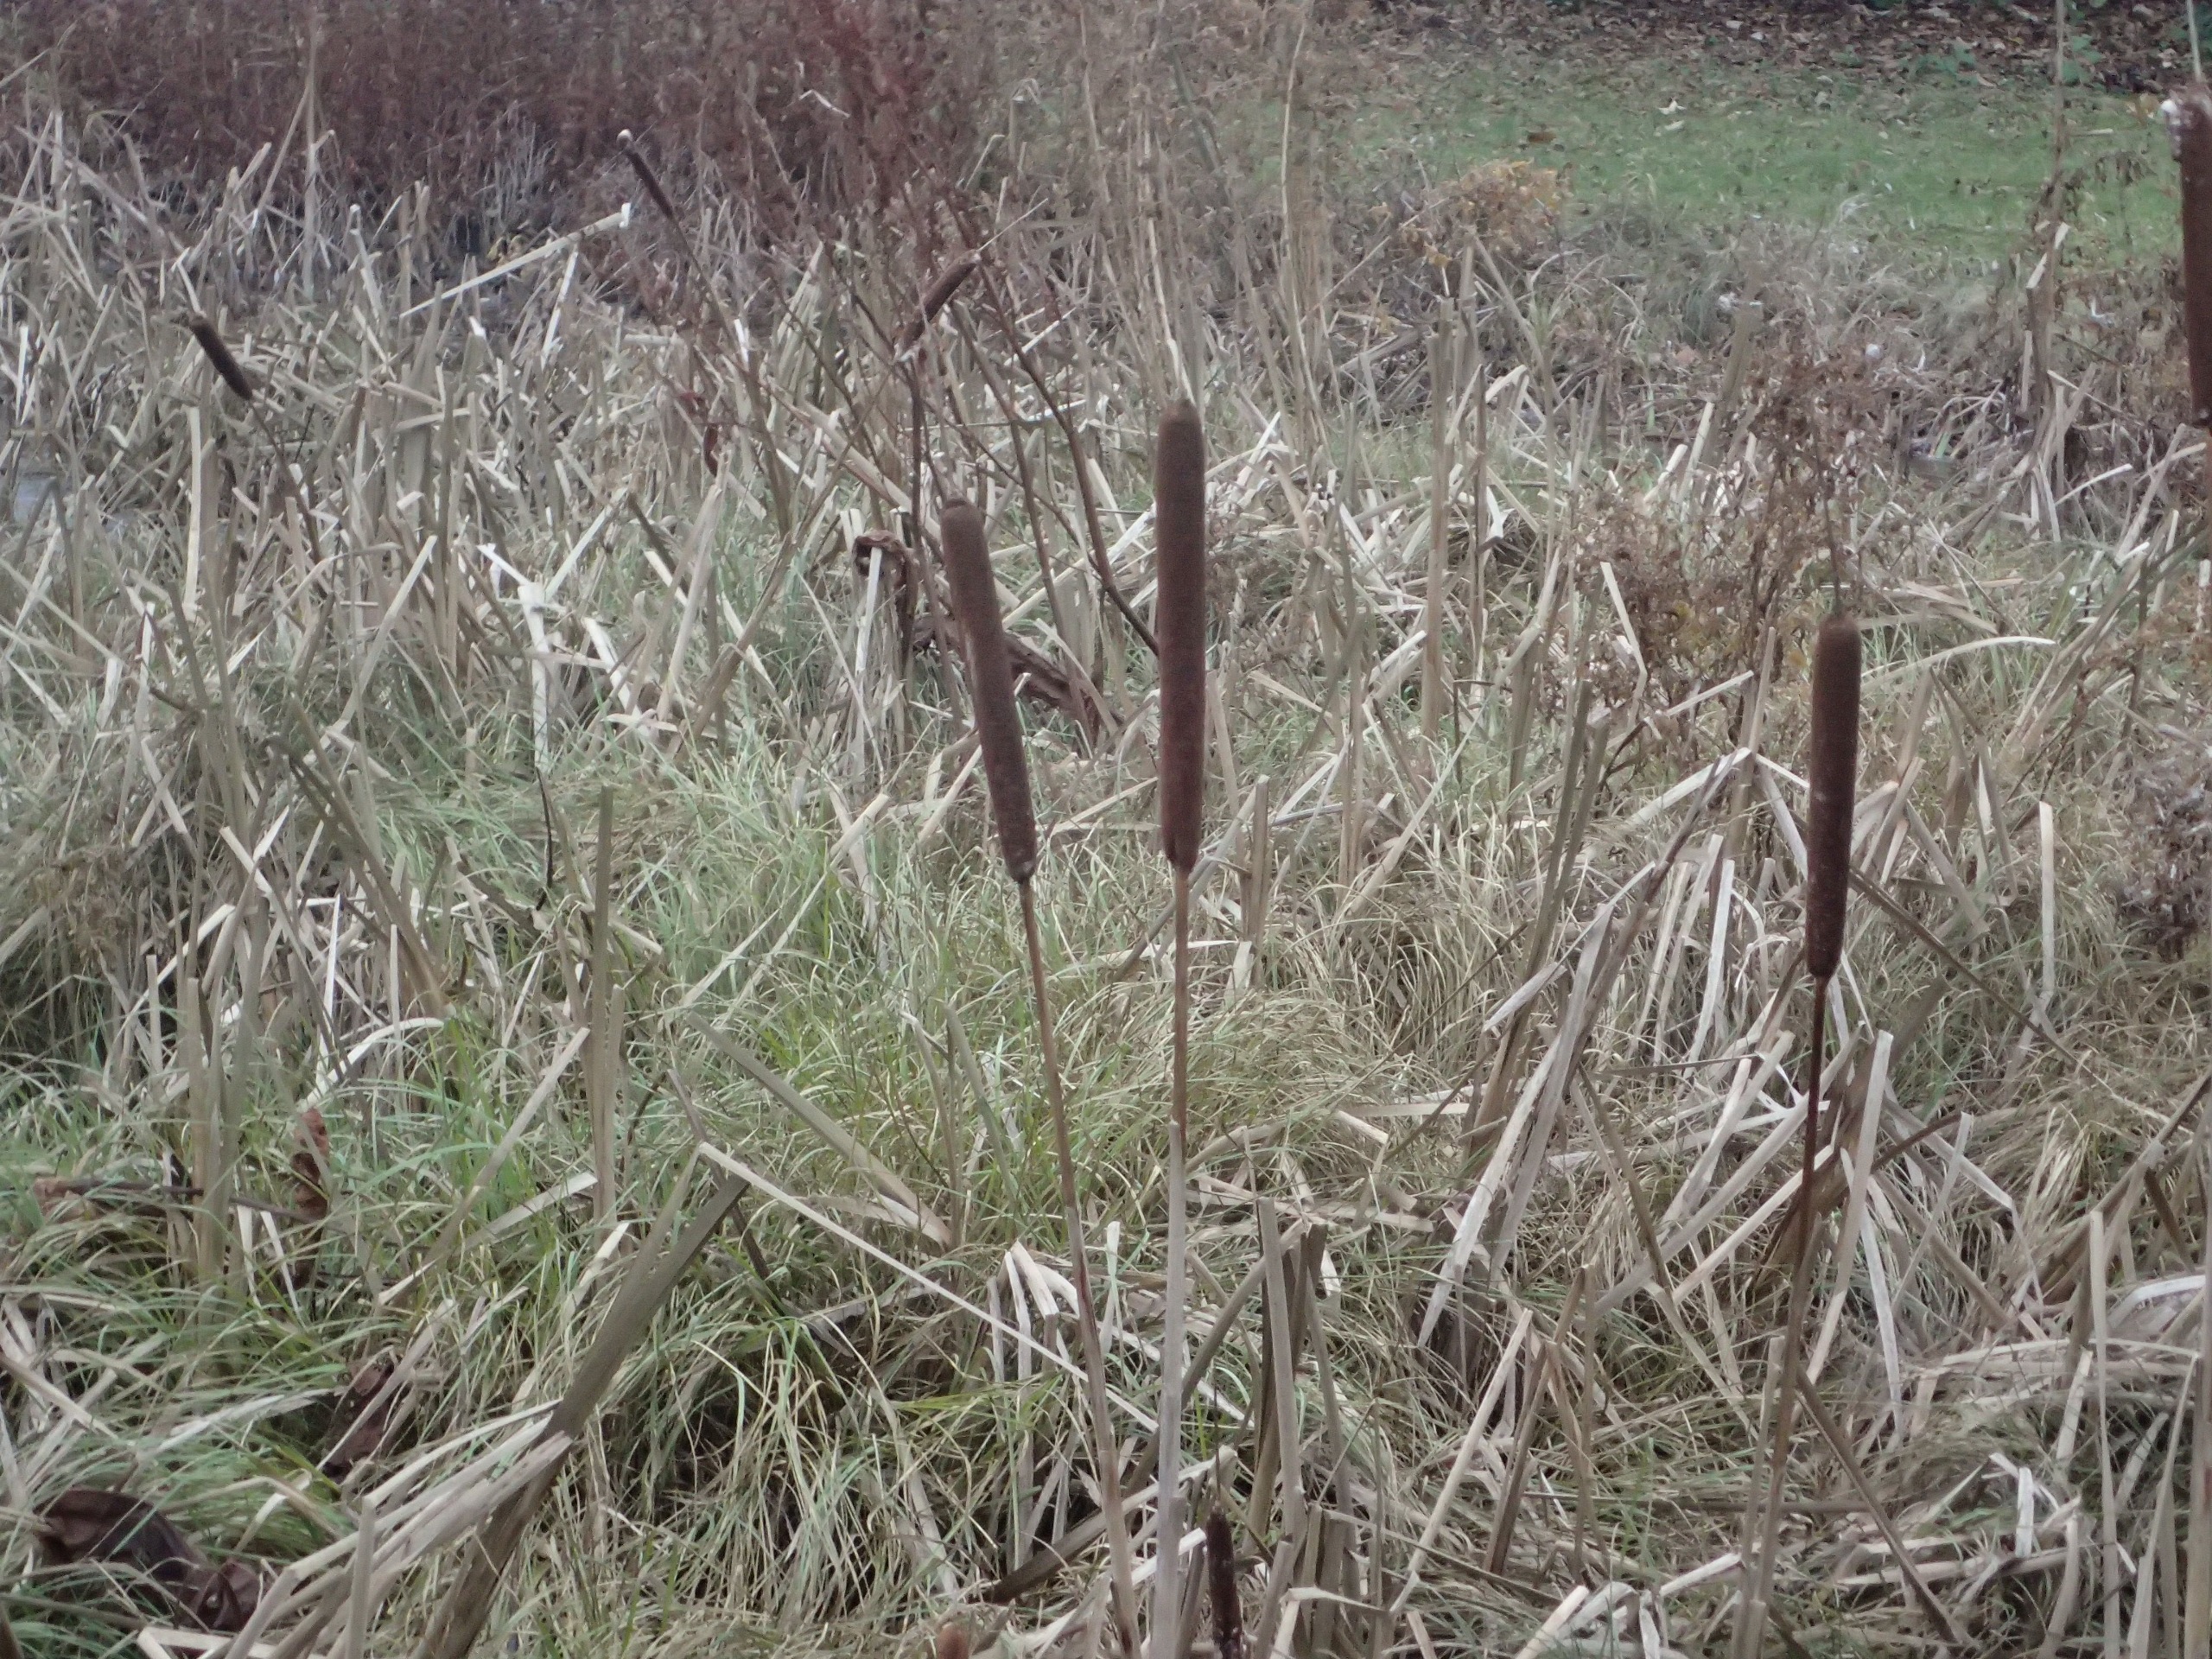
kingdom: Plantae
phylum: Tracheophyta
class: Liliopsida
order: Poales
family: Typhaceae
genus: Typha
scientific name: Typha latifolia
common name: Bredbladet dunhammer
